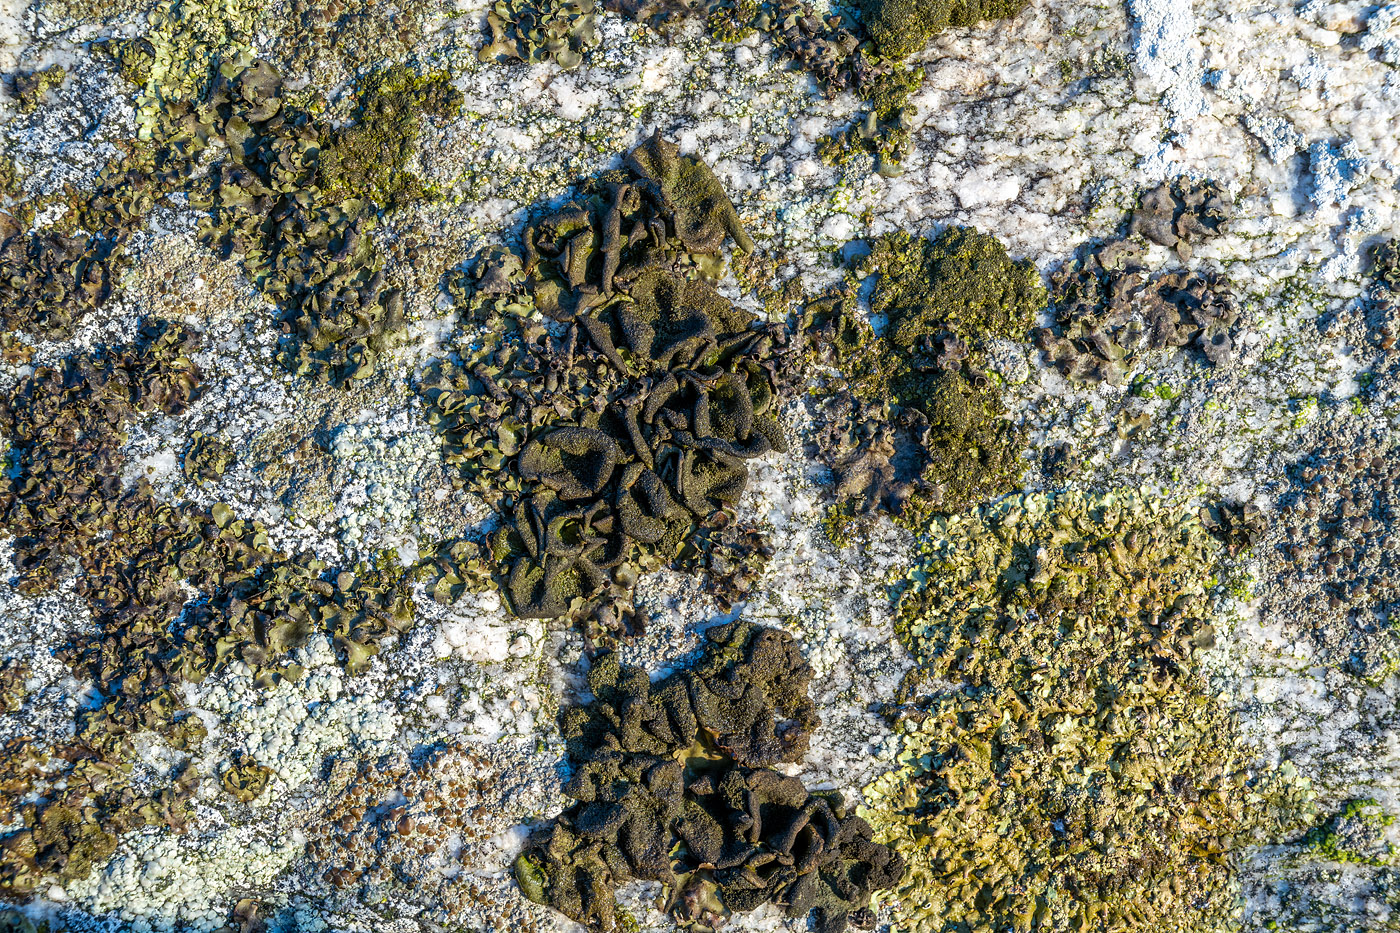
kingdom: Fungi
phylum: Ascomycota
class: Lecanoromycetes
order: Umbilicariales
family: Umbilicariaceae
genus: Umbilicaria
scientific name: Umbilicaria deusta
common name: kliddet navlelav
